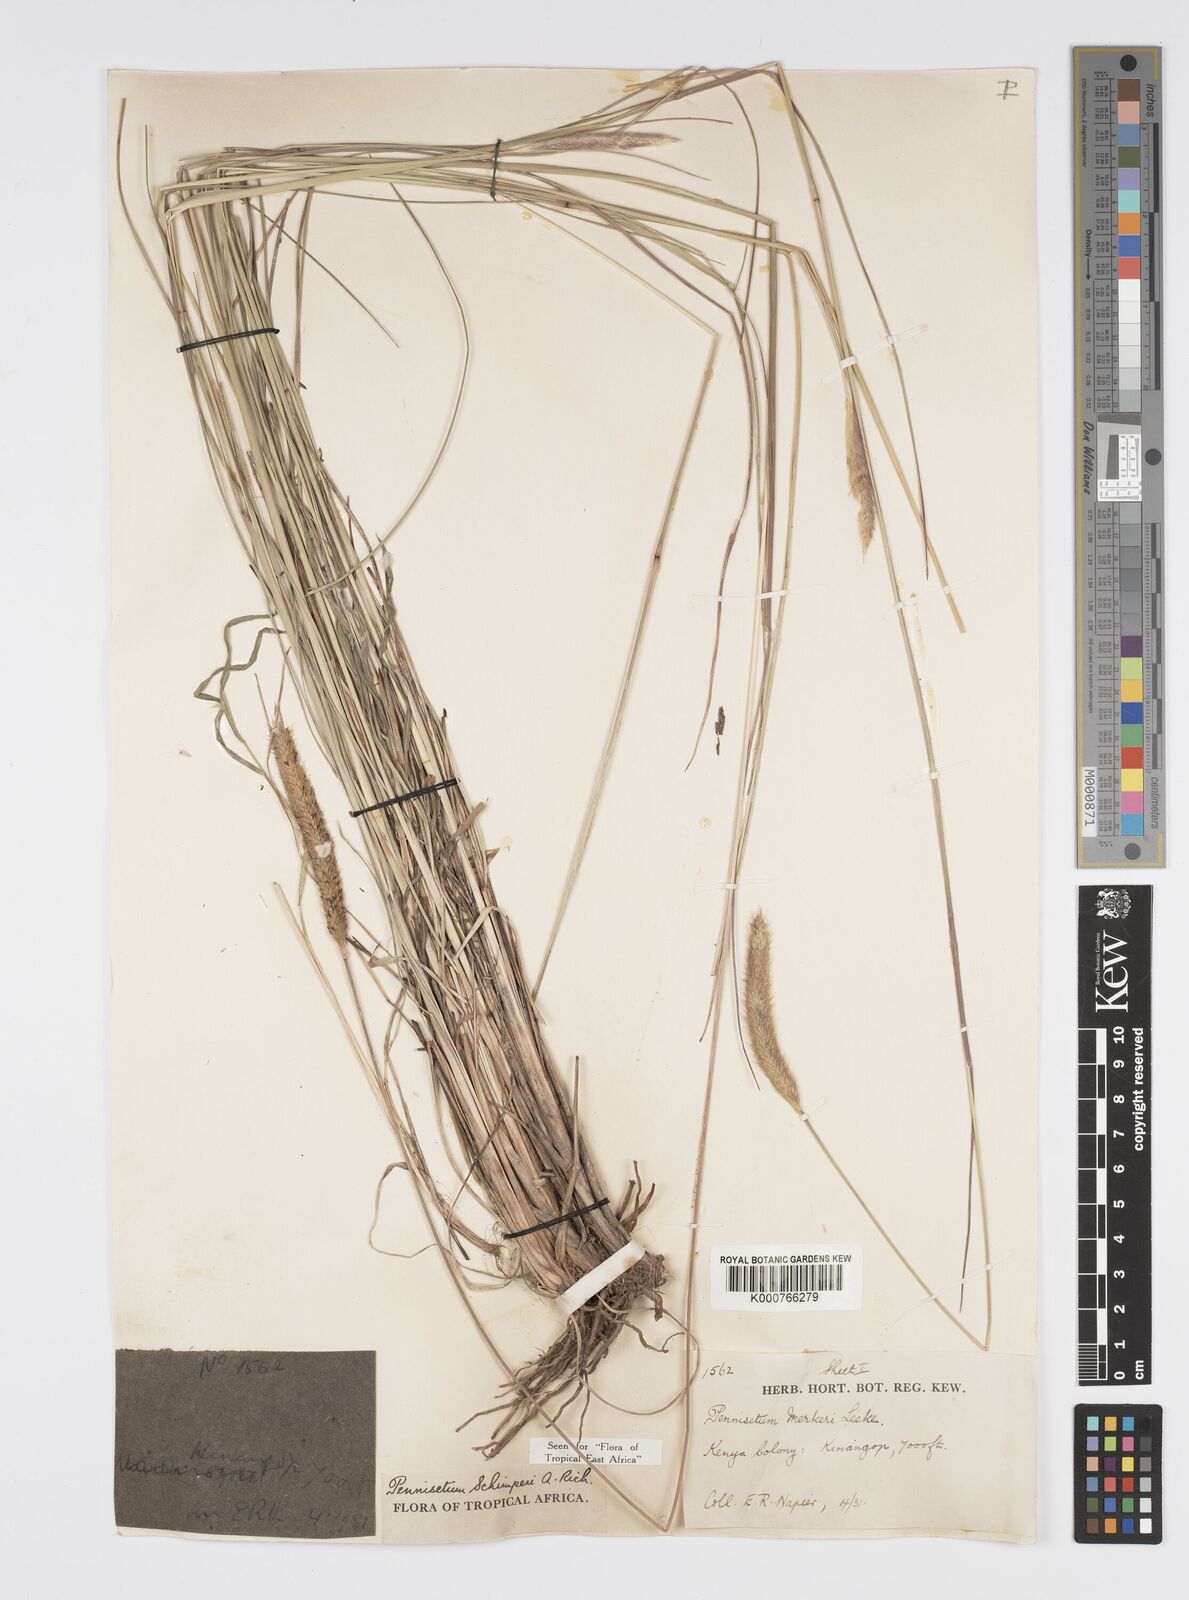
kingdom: Plantae
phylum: Tracheophyta
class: Liliopsida
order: Poales
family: Poaceae
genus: Cenchrus
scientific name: Cenchrus sphacelatus
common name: Bulgras
